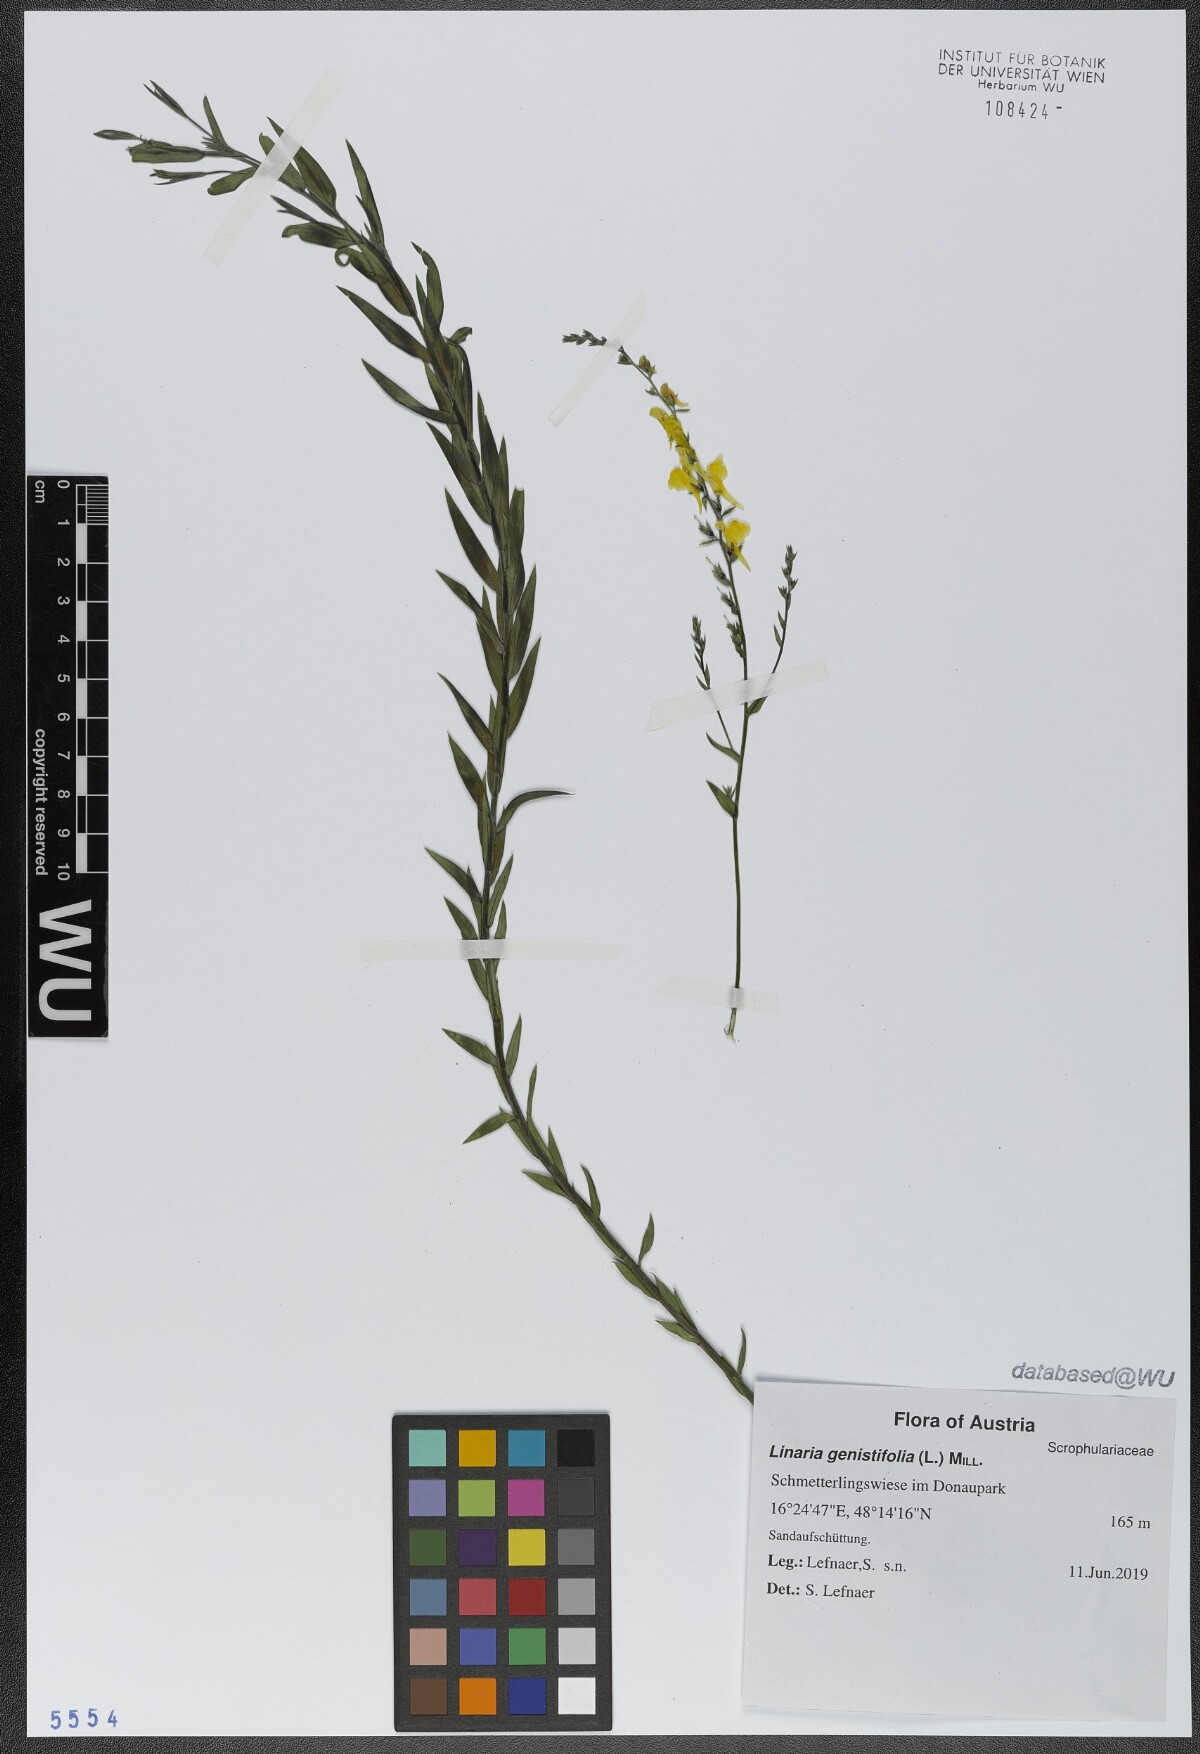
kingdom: Plantae
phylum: Tracheophyta
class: Magnoliopsida
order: Lamiales
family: Plantaginaceae
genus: Linaria
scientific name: Linaria genistifolia
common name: Broomleaf toadflax
